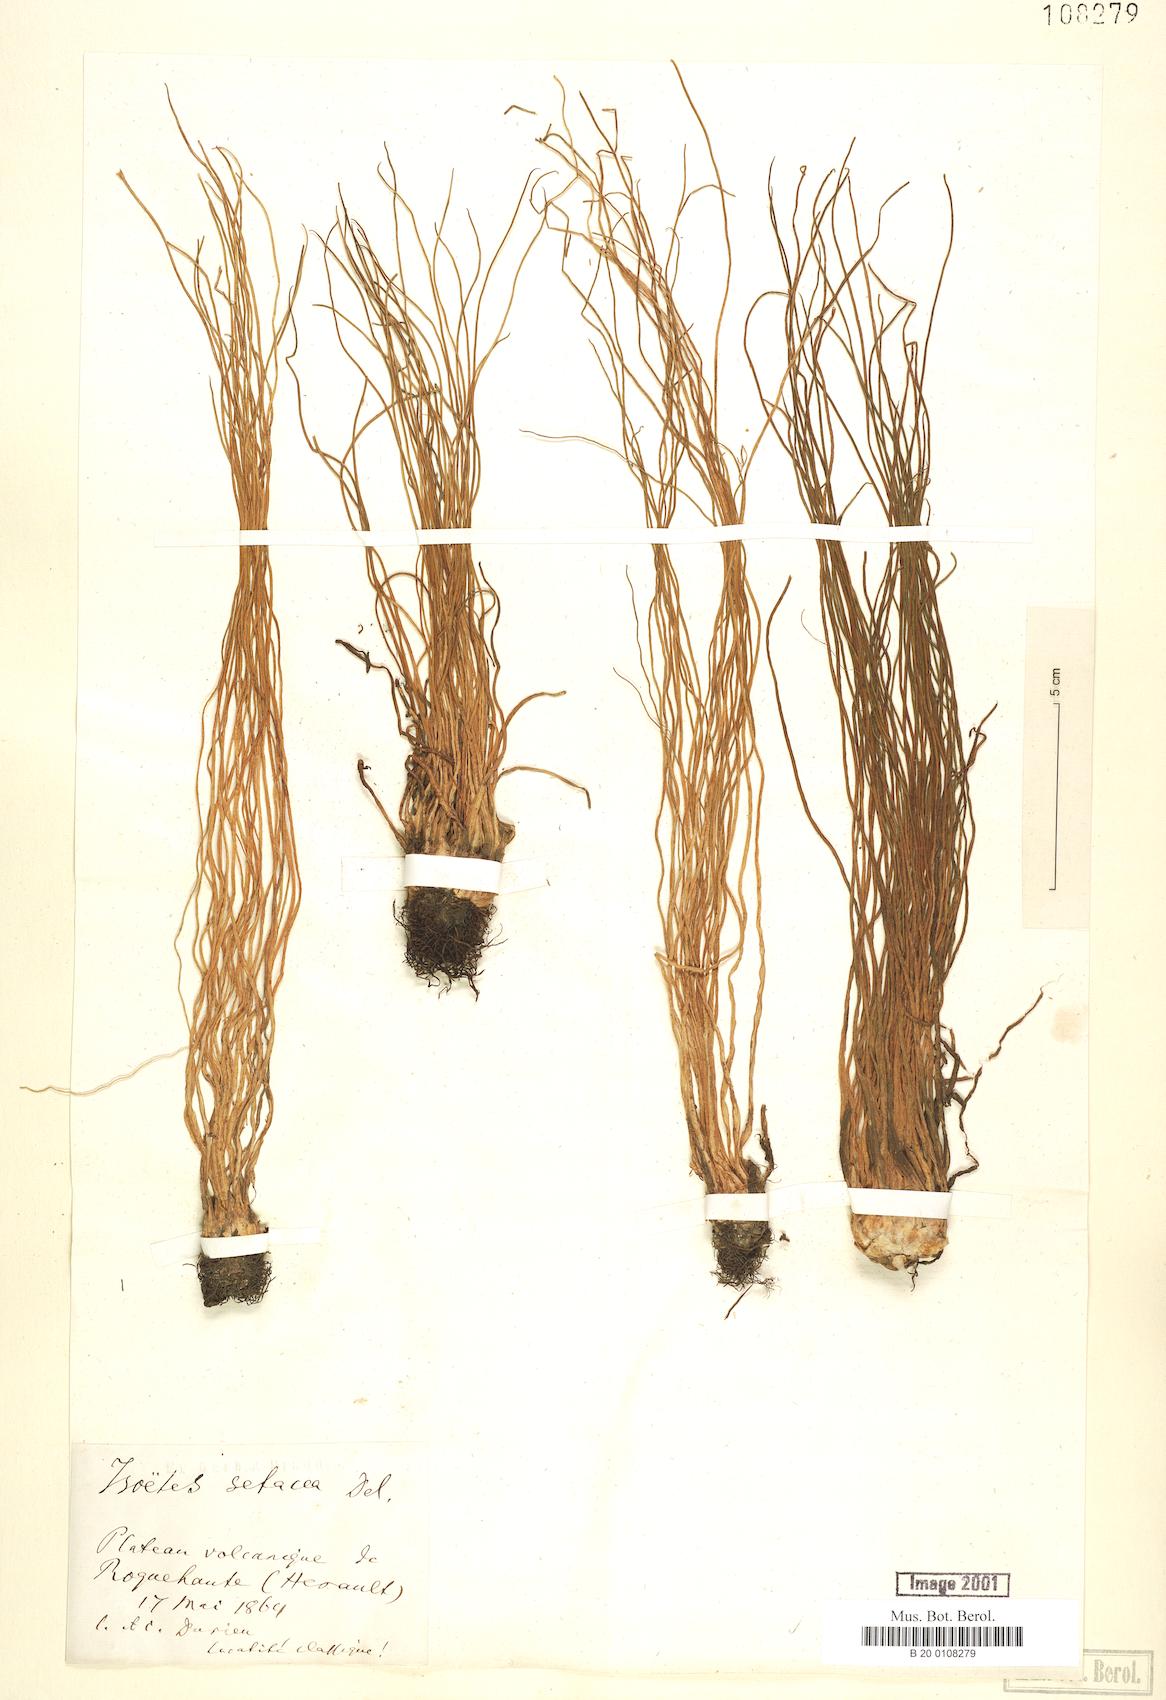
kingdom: Plantae
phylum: Tracheophyta
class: Lycopodiopsida
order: Isoetales
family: Isoetaceae
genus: Isoetes
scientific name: Isoetes lacustris
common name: Common quillwort
